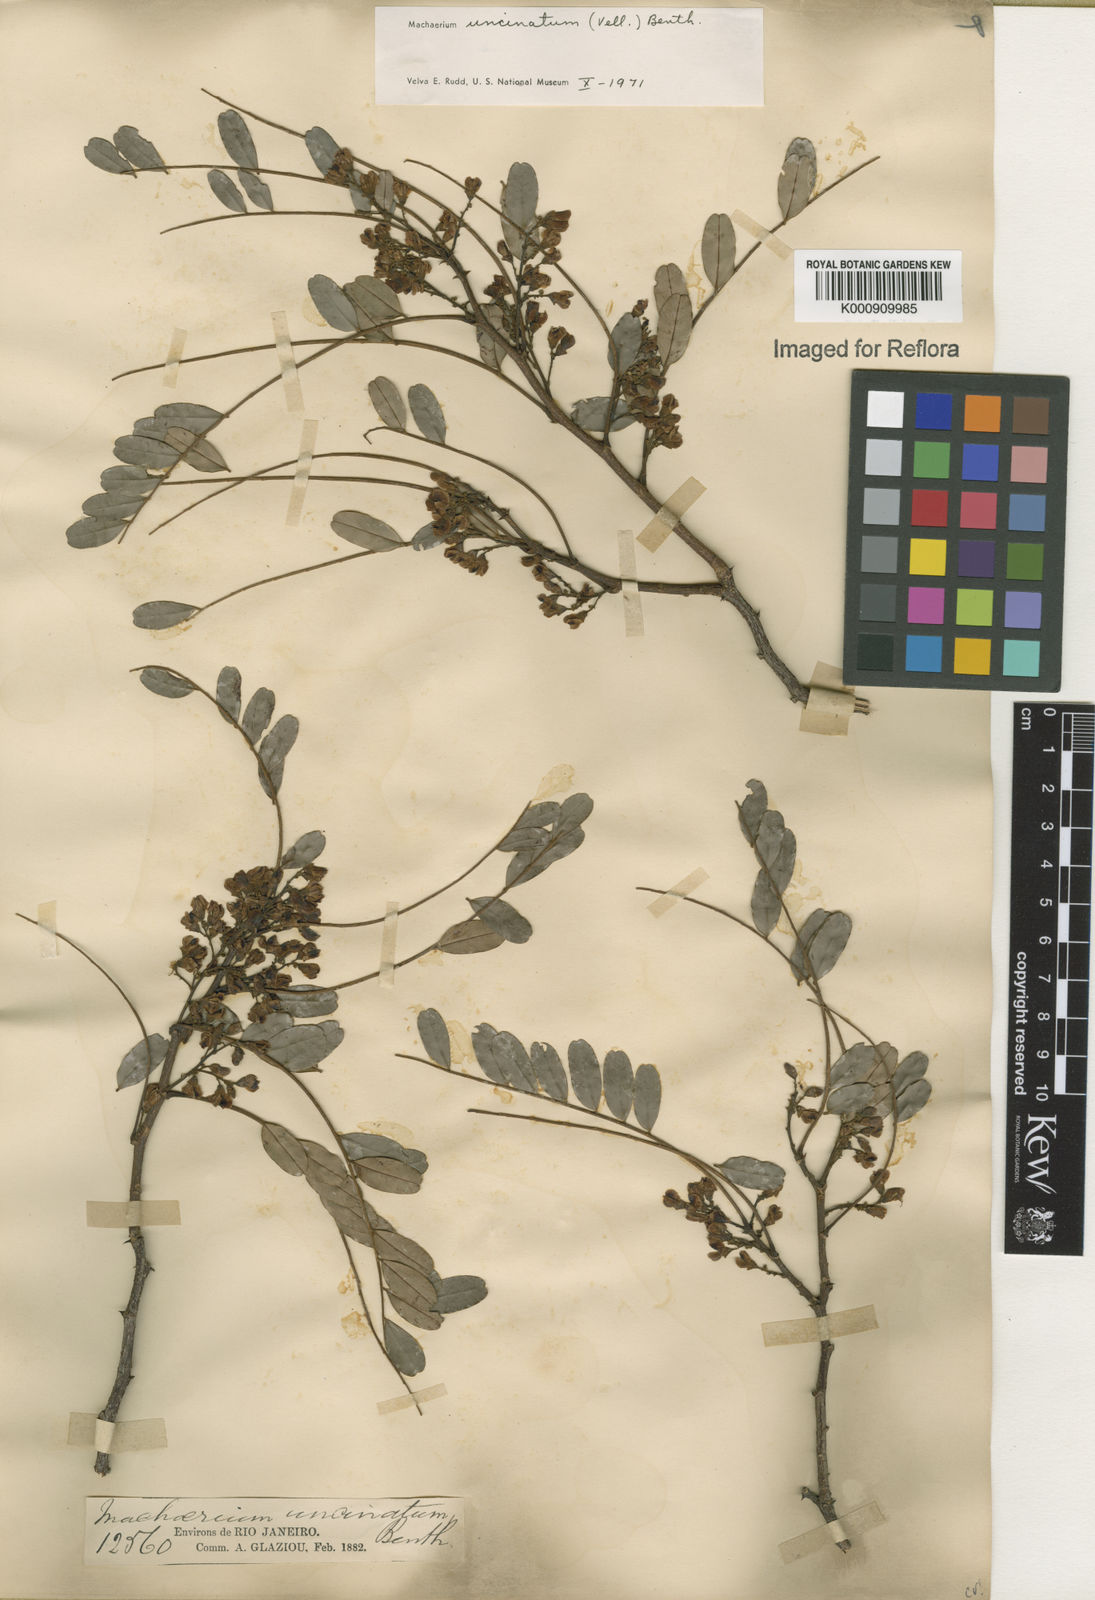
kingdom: Plantae
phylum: Tracheophyta
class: Magnoliopsida
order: Fabales
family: Fabaceae
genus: Machaerium
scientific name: Machaerium uncinatum
